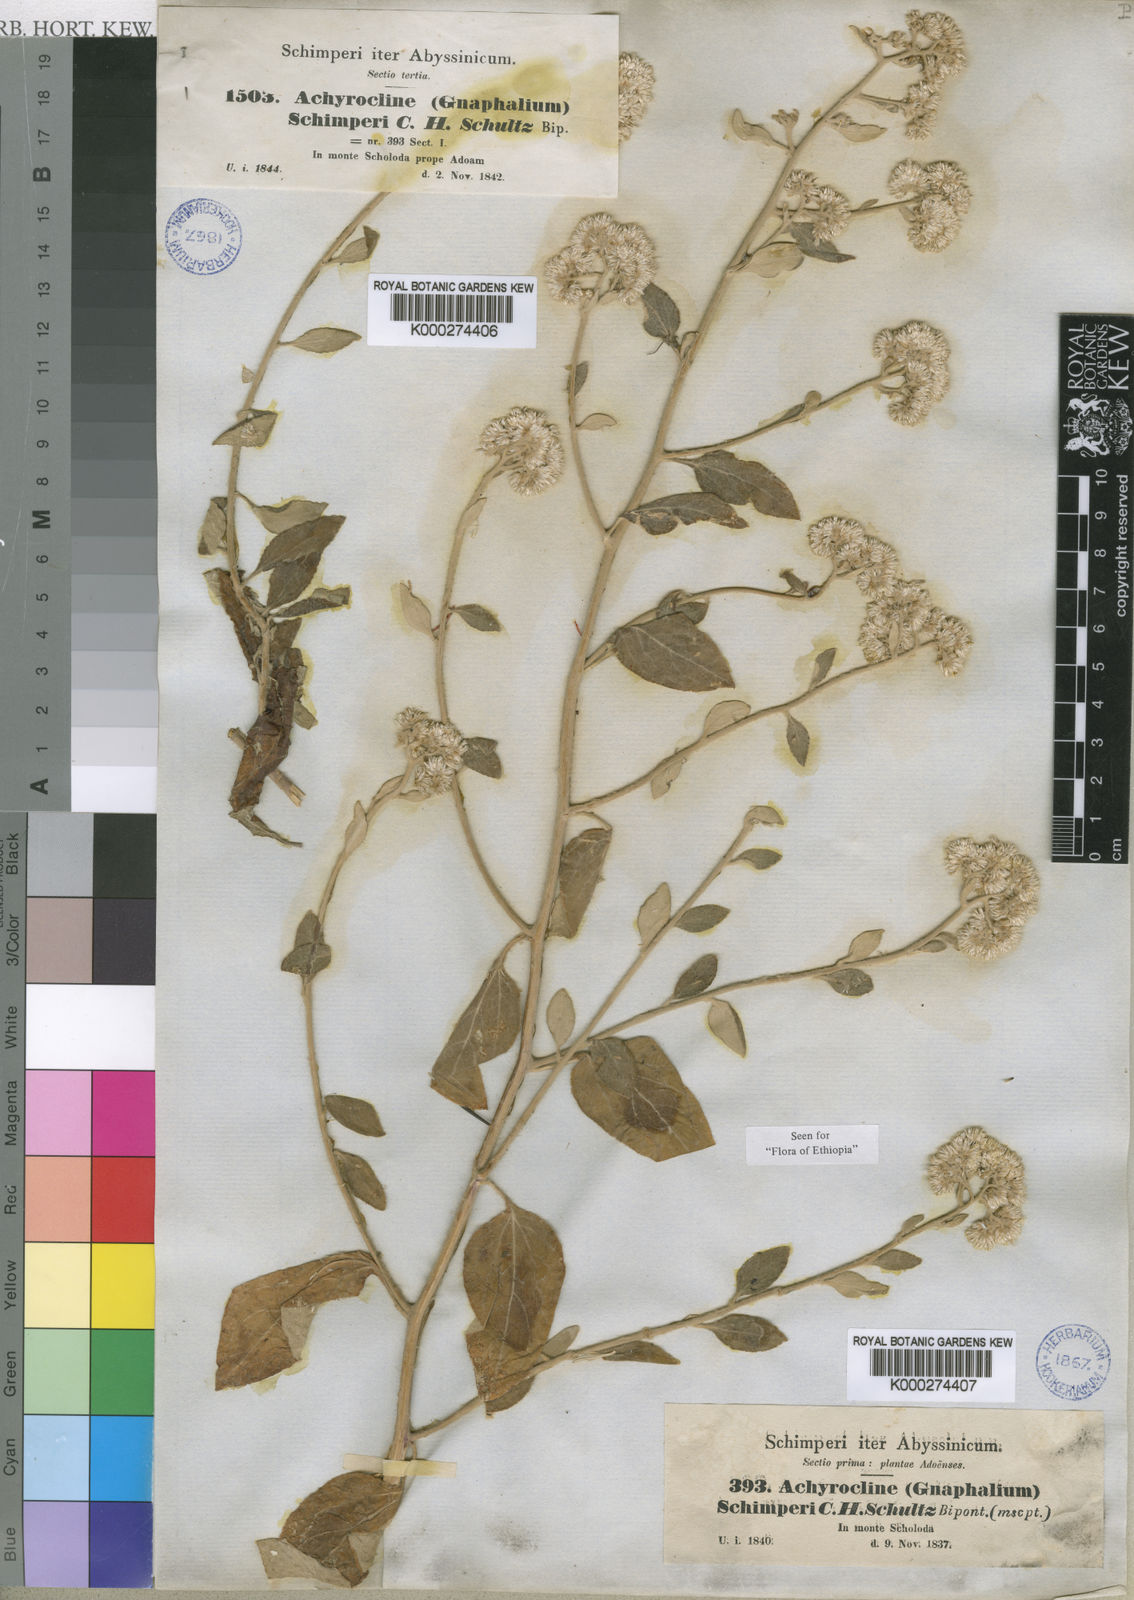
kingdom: Plantae
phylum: Tracheophyta
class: Magnoliopsida
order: Asterales
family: Asteraceae
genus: Helichrysum
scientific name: Helichrysum schimperi
